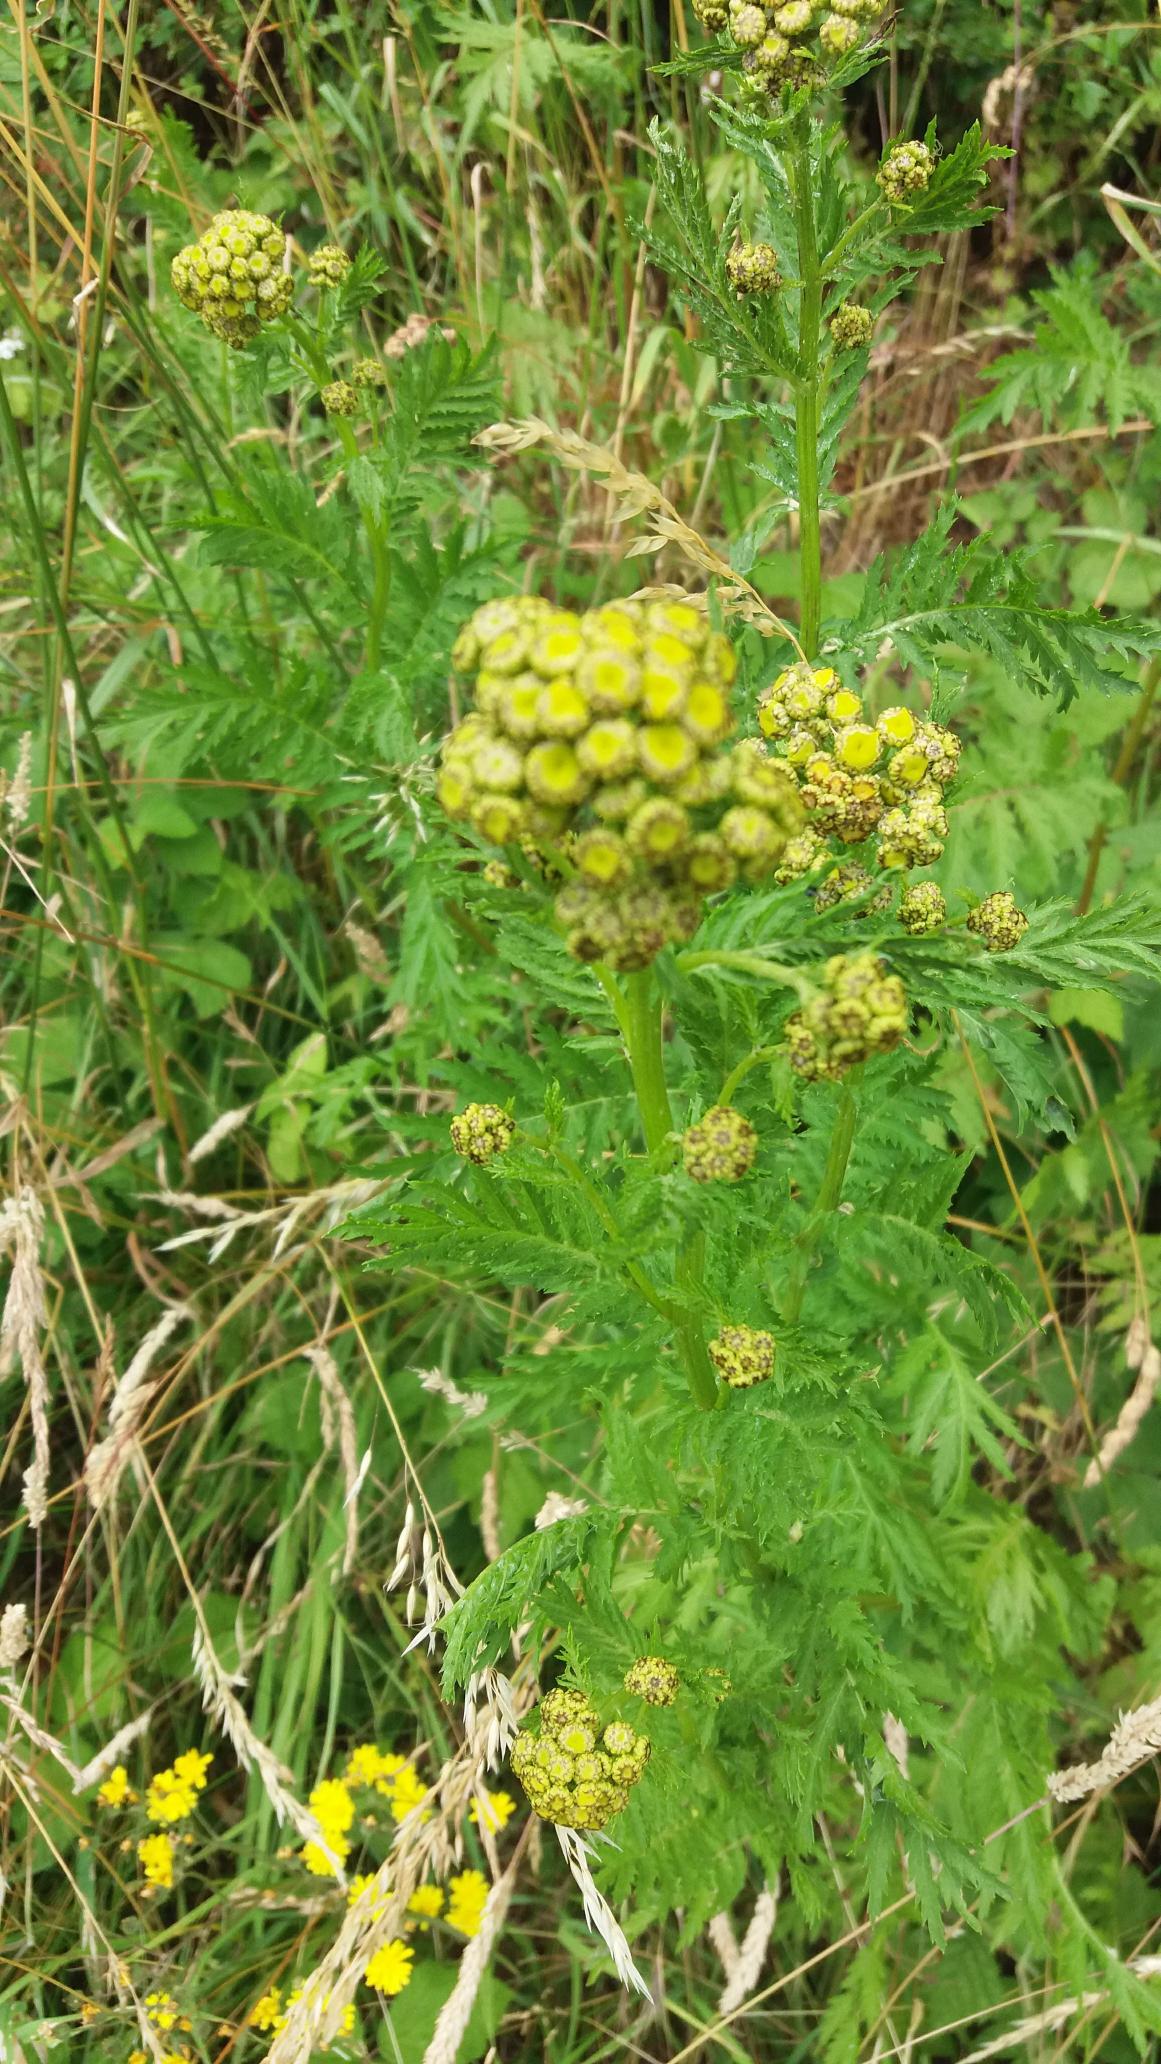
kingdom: Plantae
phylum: Tracheophyta
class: Magnoliopsida
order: Asterales
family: Asteraceae
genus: Tanacetum
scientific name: Tanacetum vulgare
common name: Rejnfan
